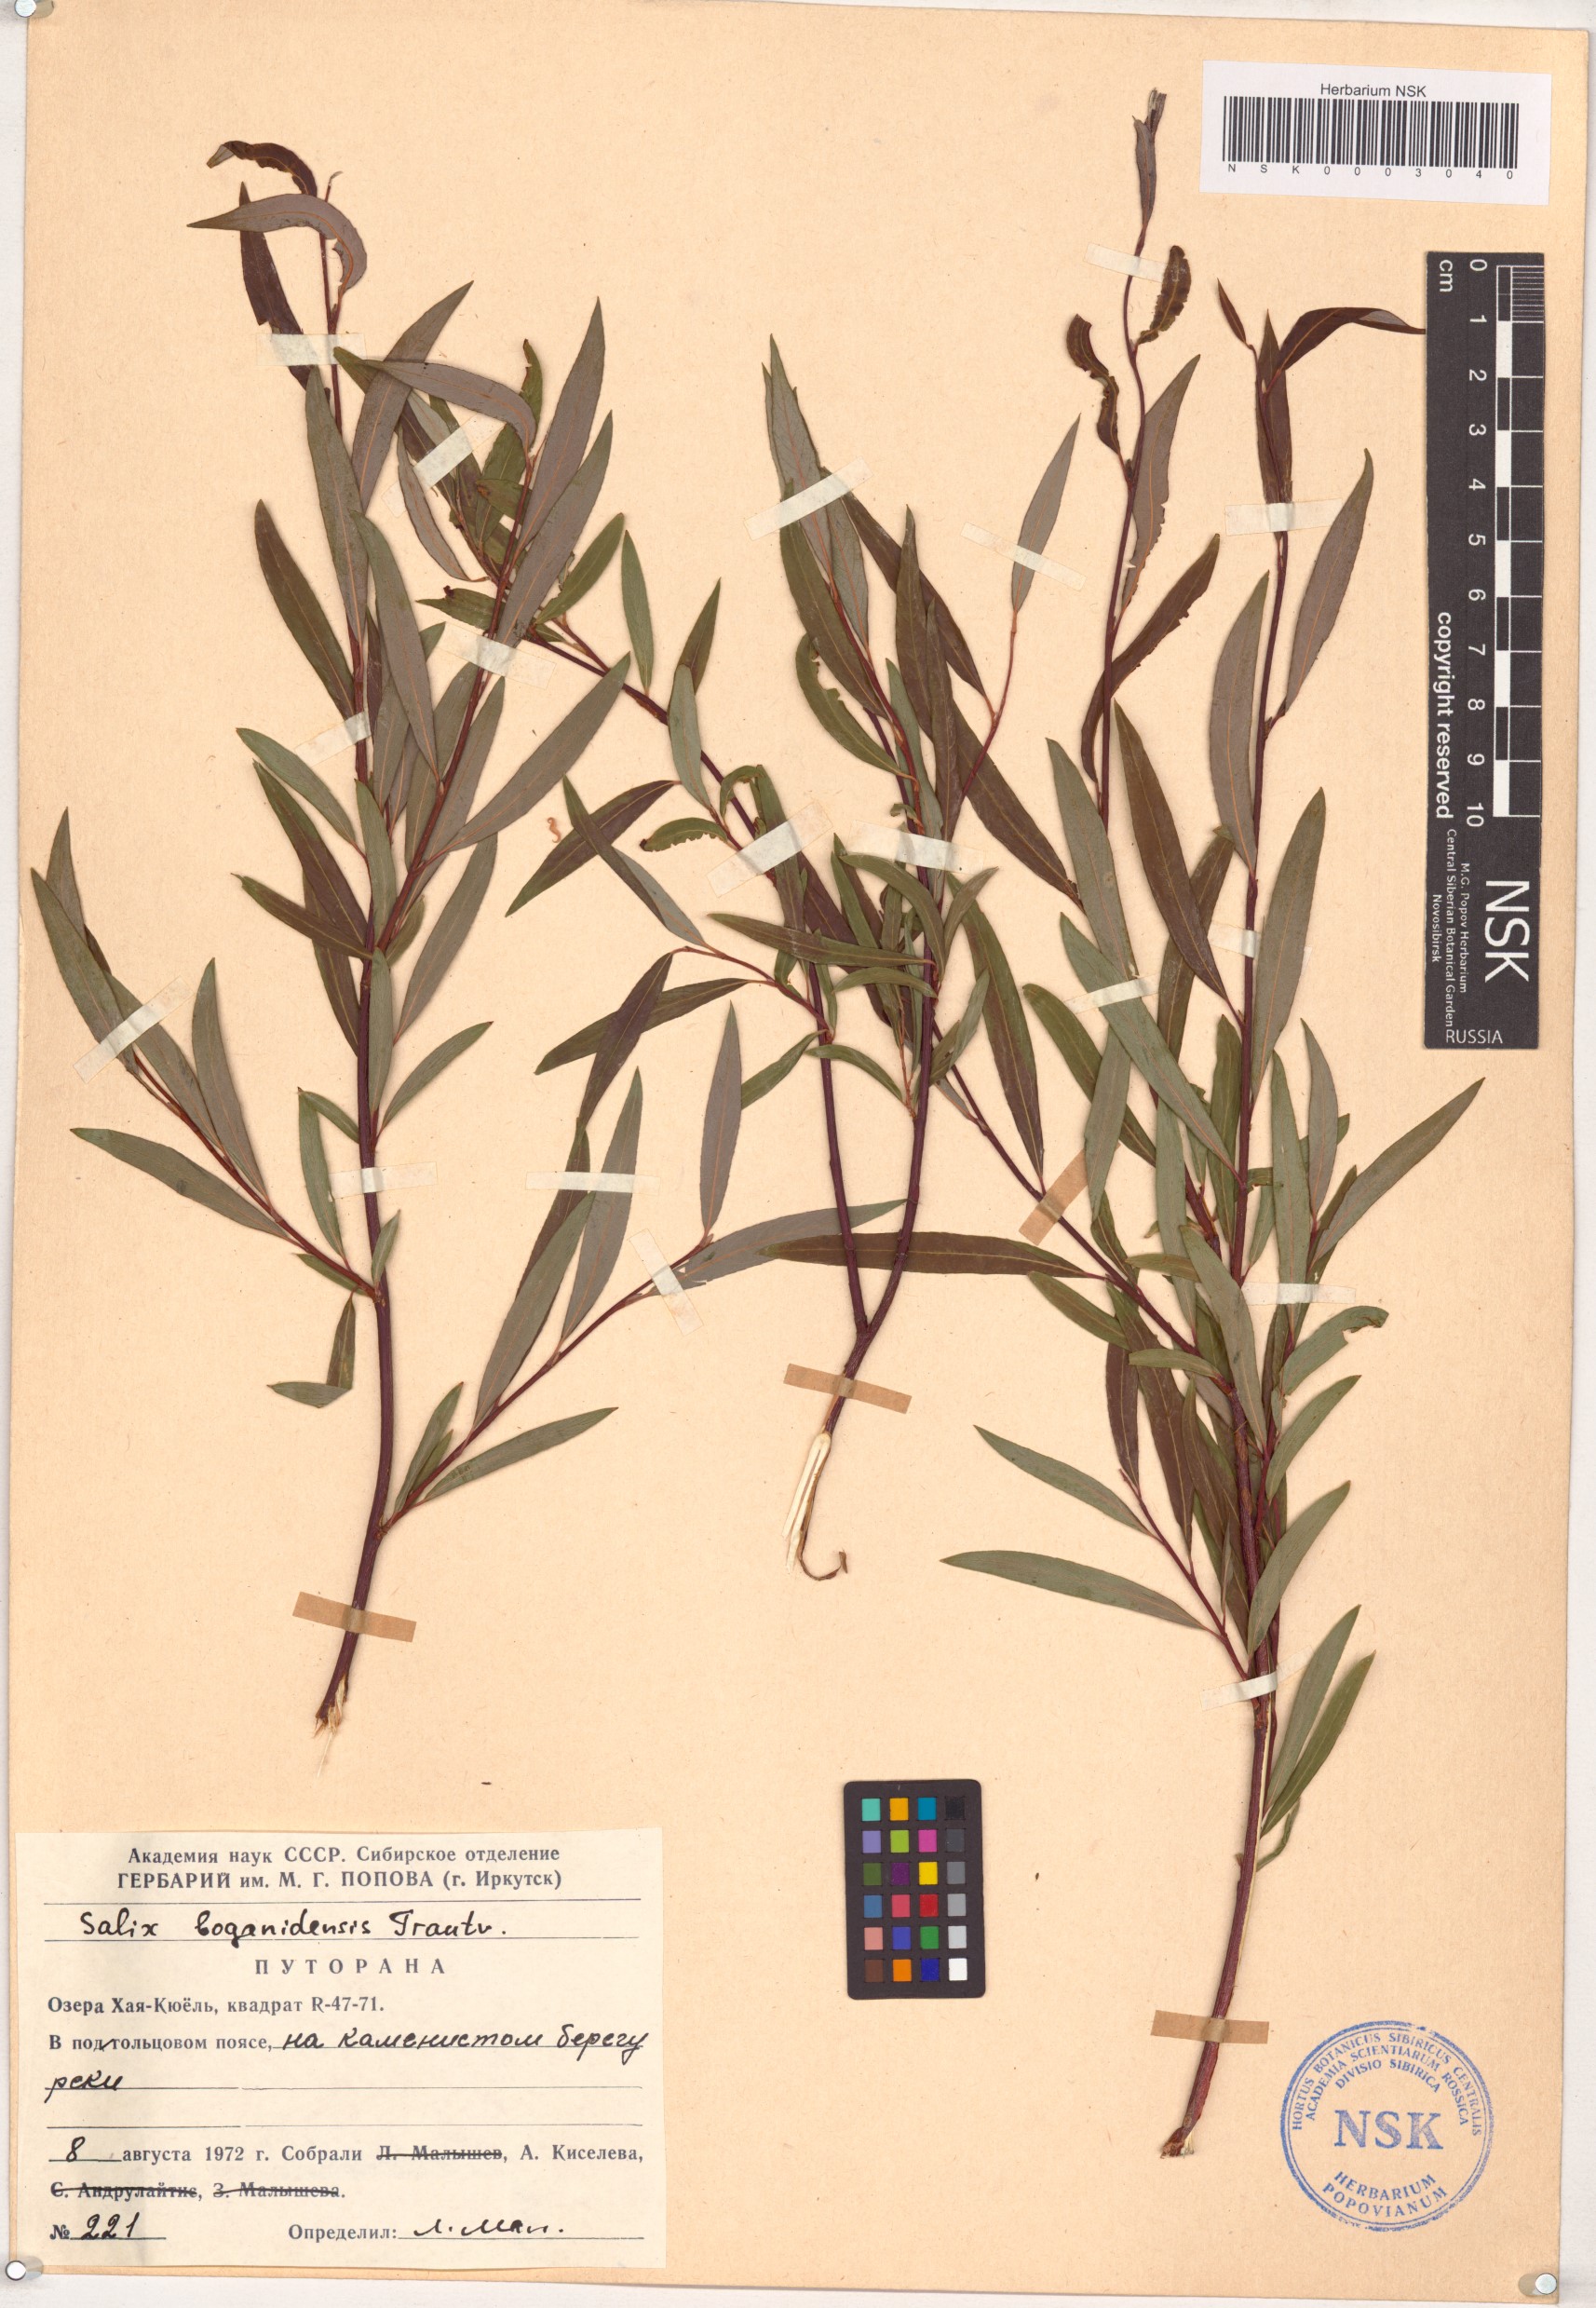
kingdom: Plantae
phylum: Tracheophyta
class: Magnoliopsida
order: Malpighiales
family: Salicaceae
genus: Salix
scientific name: Salix boganidensis
